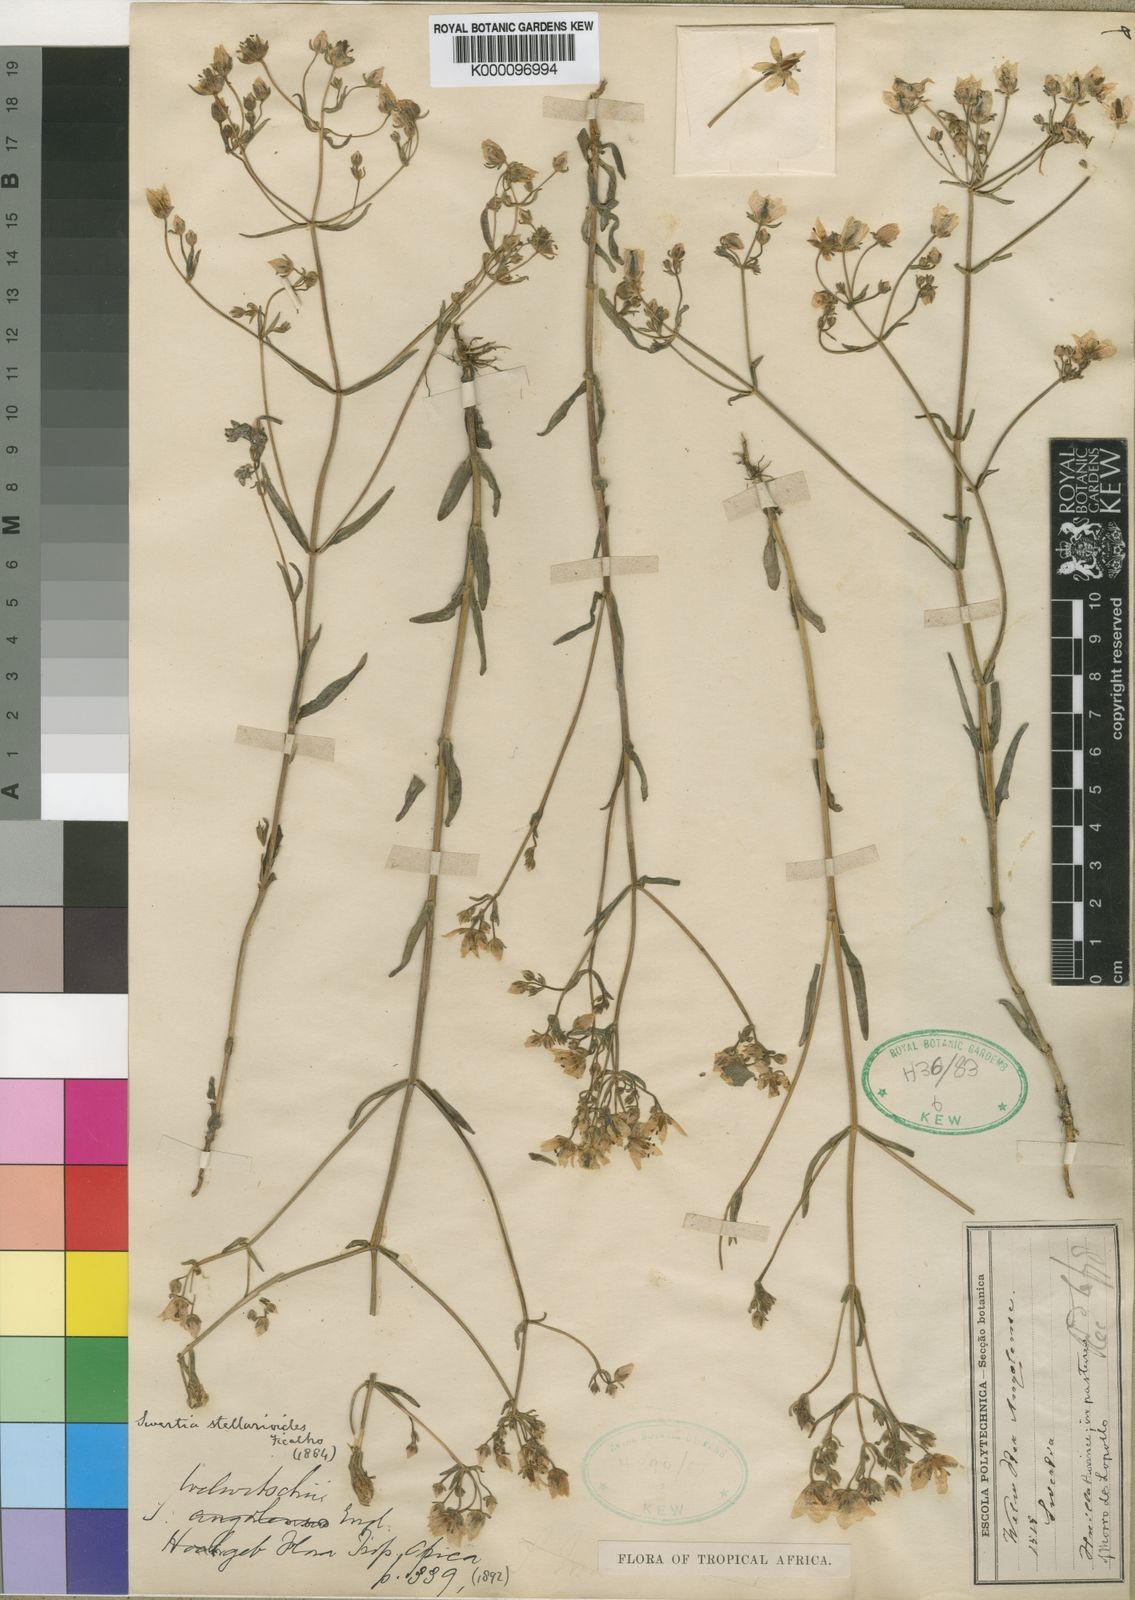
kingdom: Plantae
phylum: Tracheophyta
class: Magnoliopsida
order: Gentianales
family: Gentianaceae
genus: Swertia
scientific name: Swertia welwitschii
